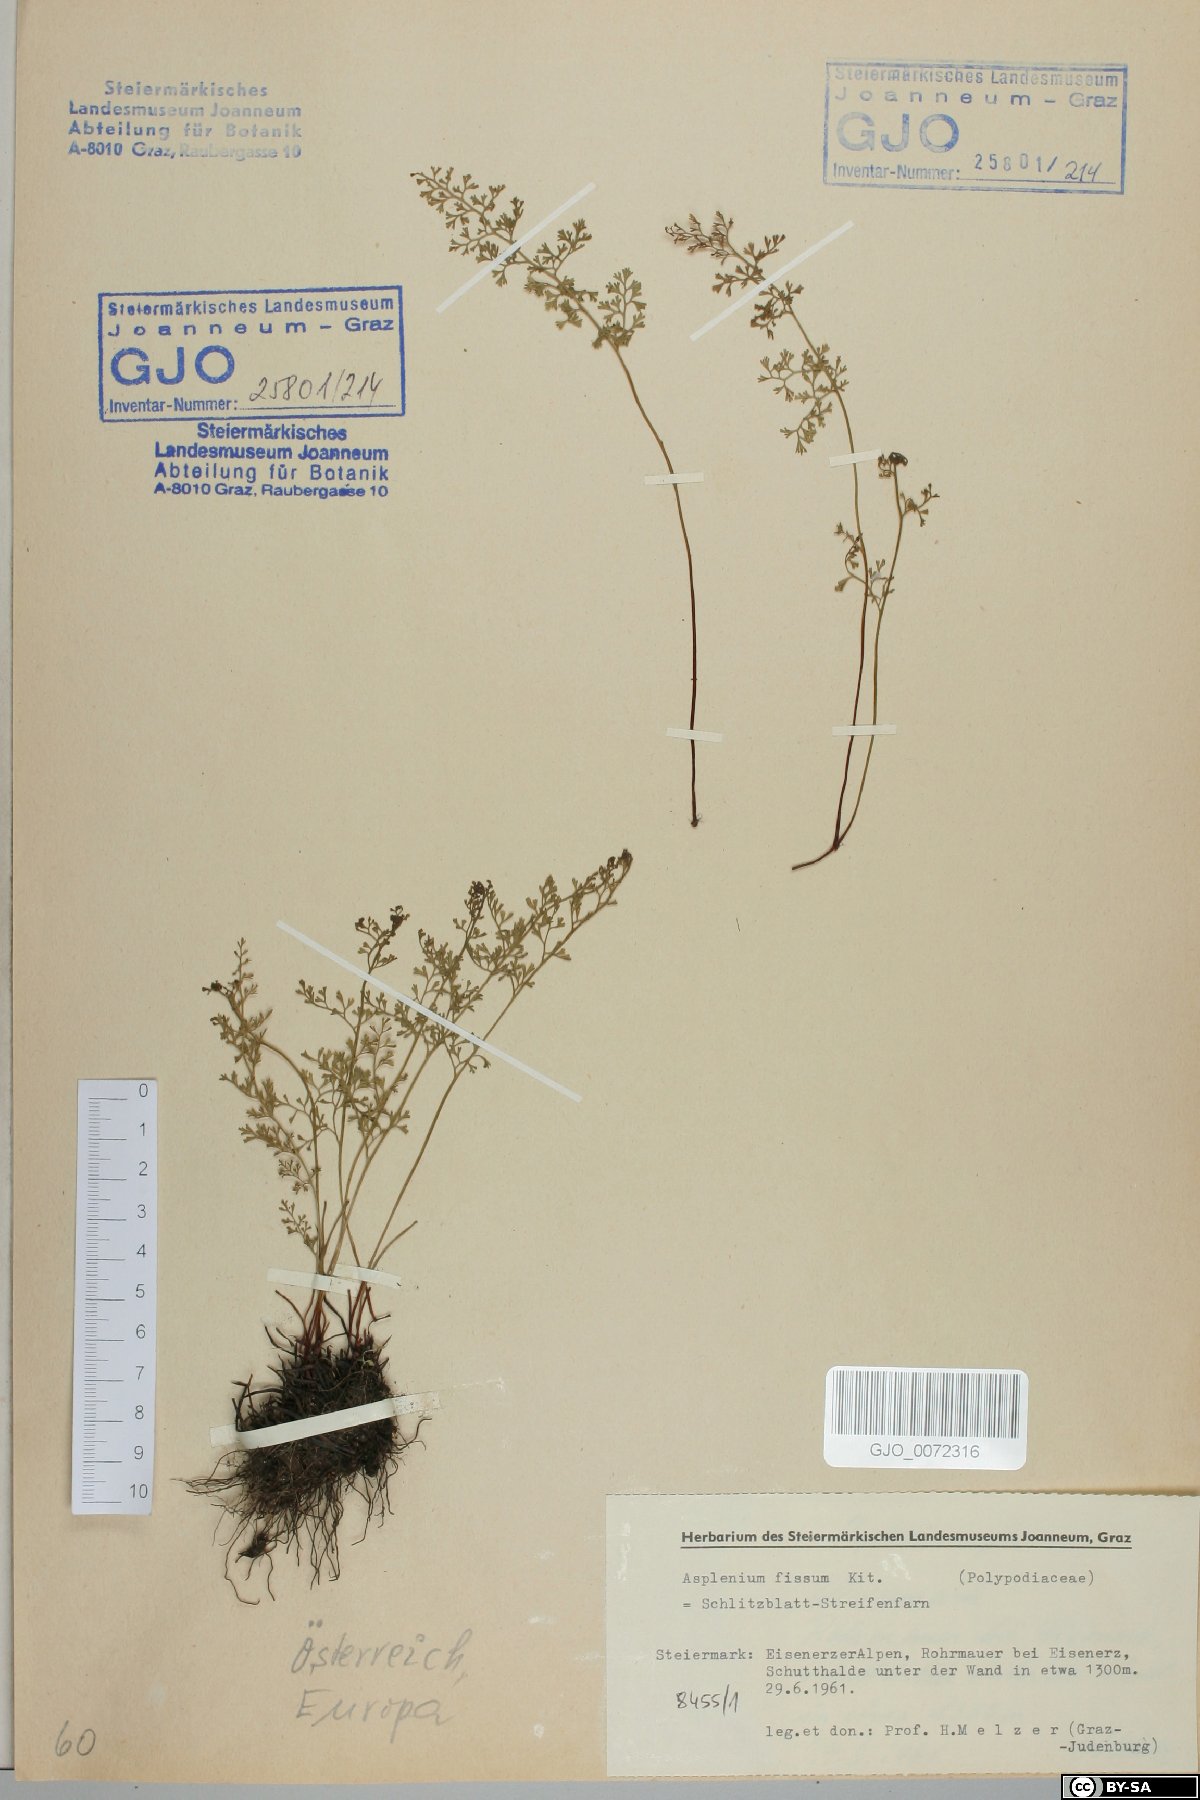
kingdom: Plantae
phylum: Tracheophyta
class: Polypodiopsida
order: Polypodiales
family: Aspleniaceae
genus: Asplenium
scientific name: Asplenium fissum
